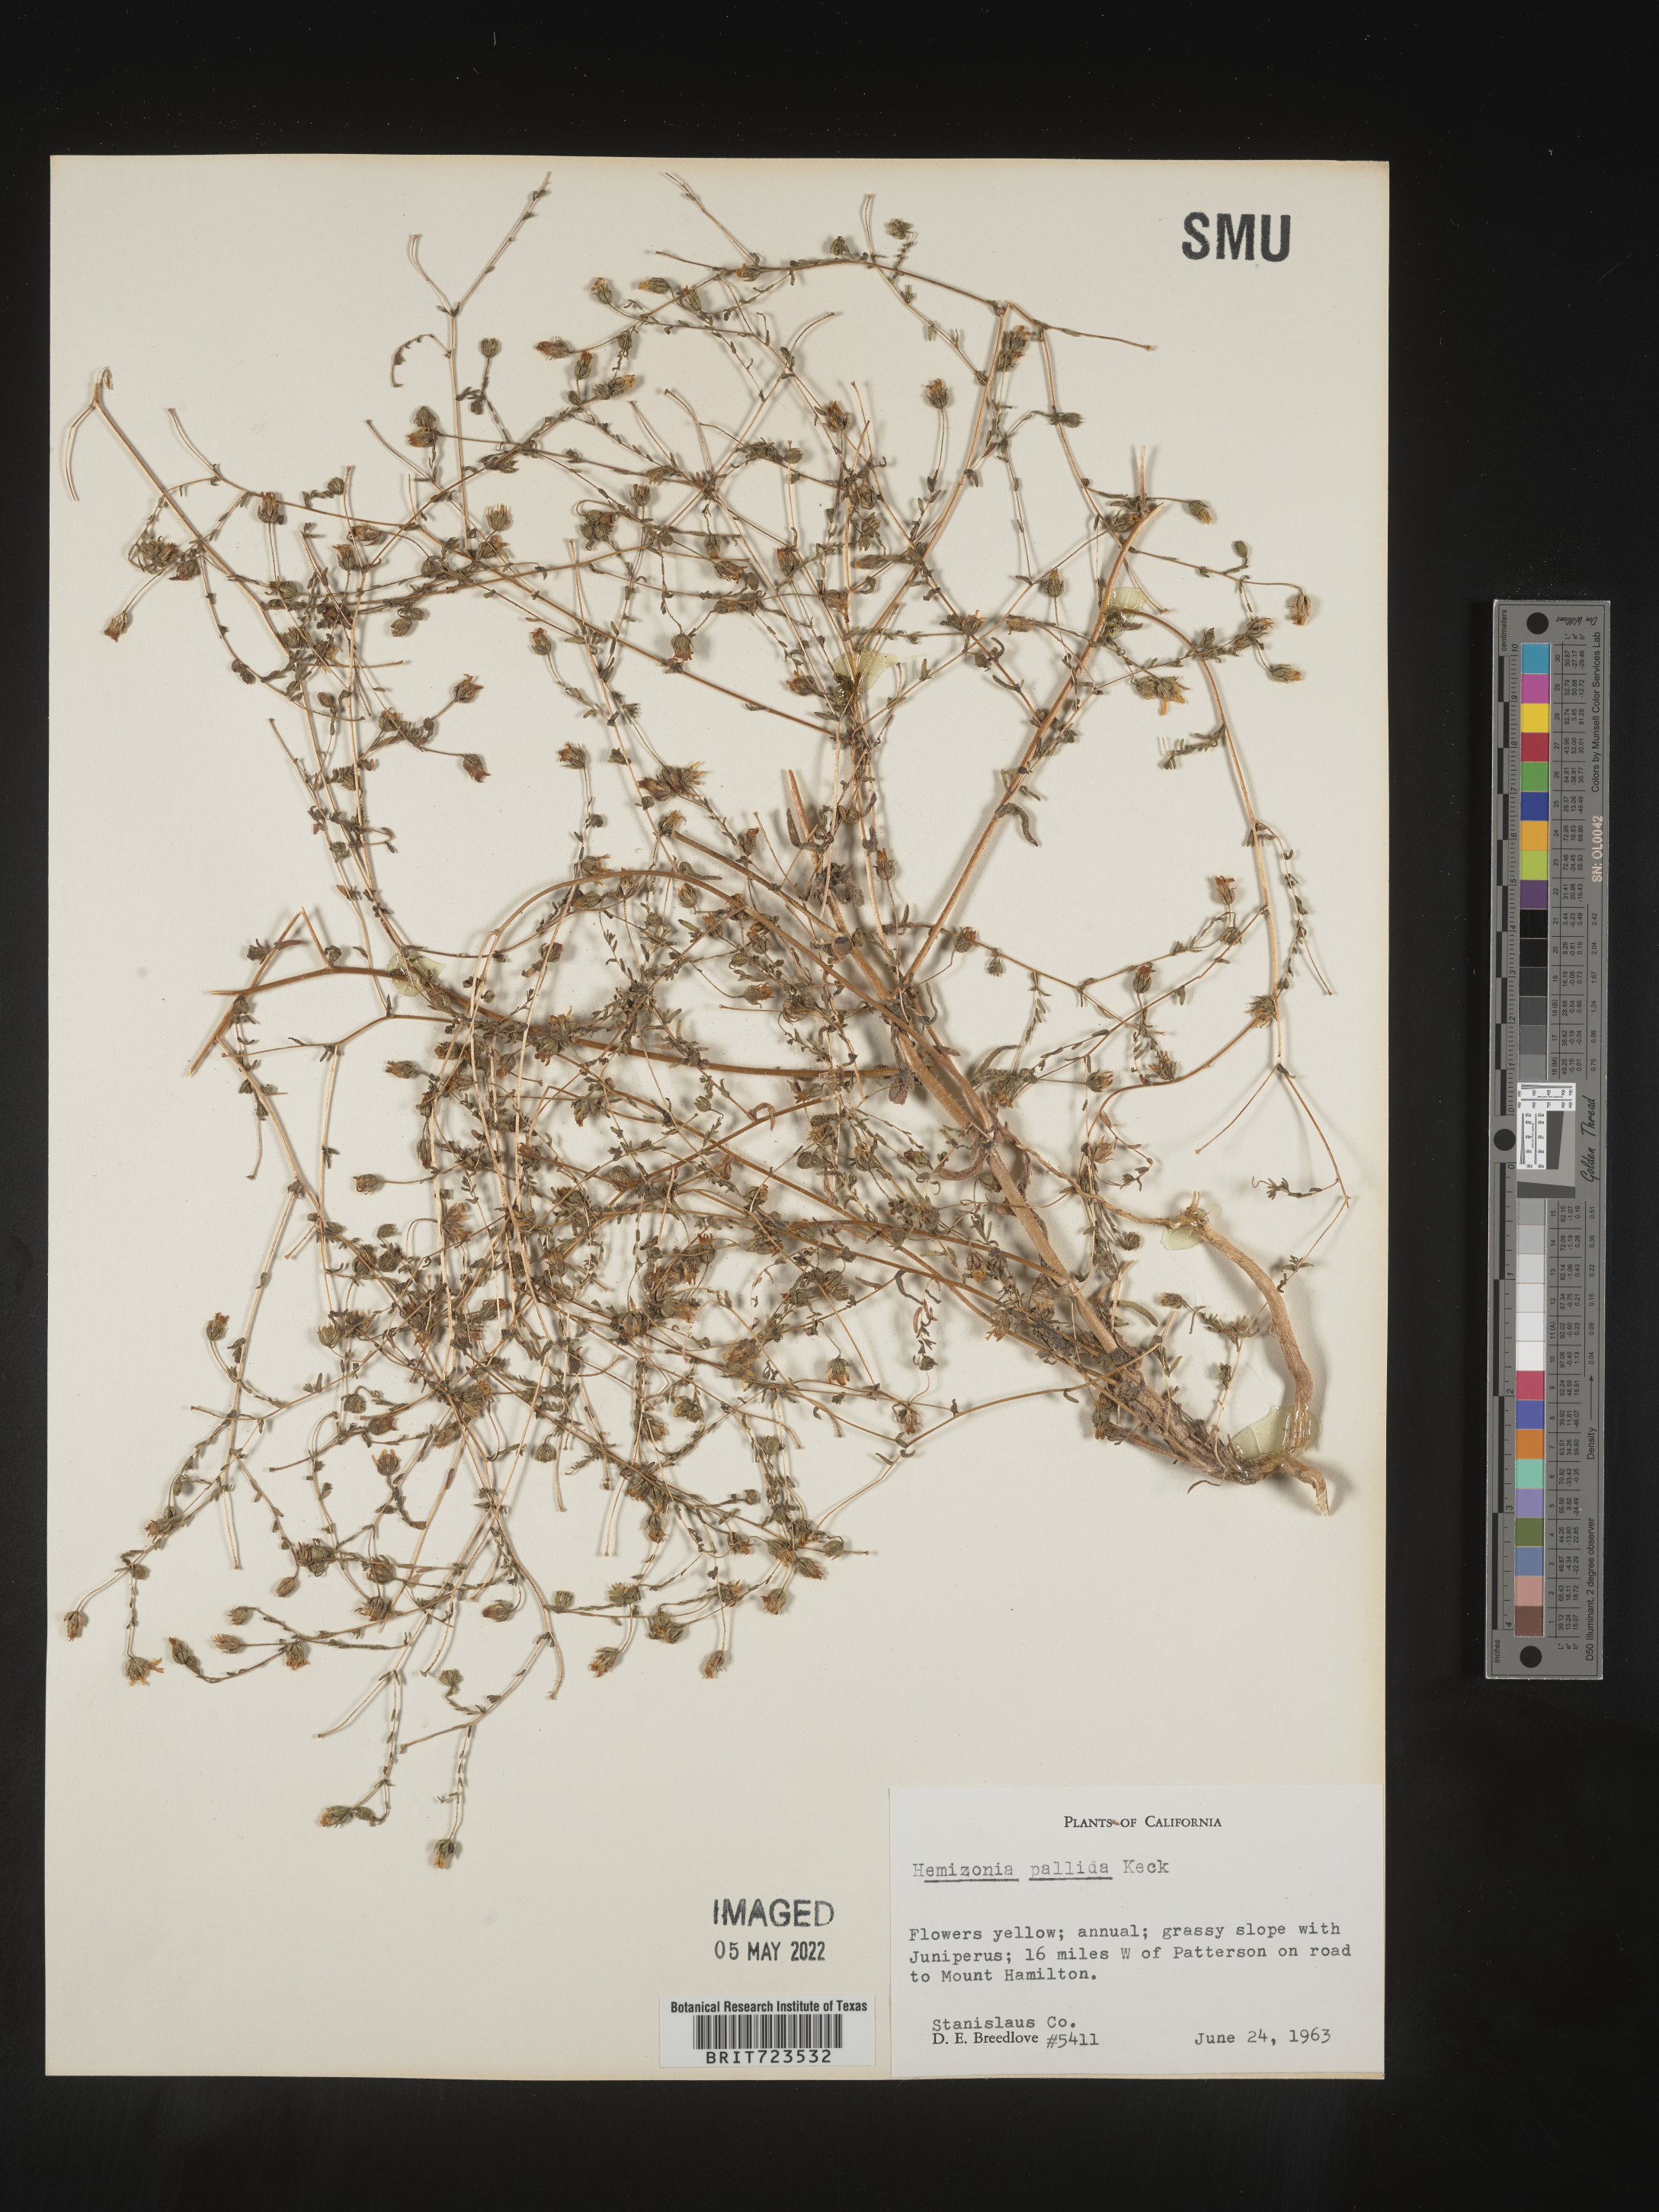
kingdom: Plantae
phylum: Tracheophyta
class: Magnoliopsida
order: Asterales
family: Asteraceae
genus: Hemizonia
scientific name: Hemizonia
